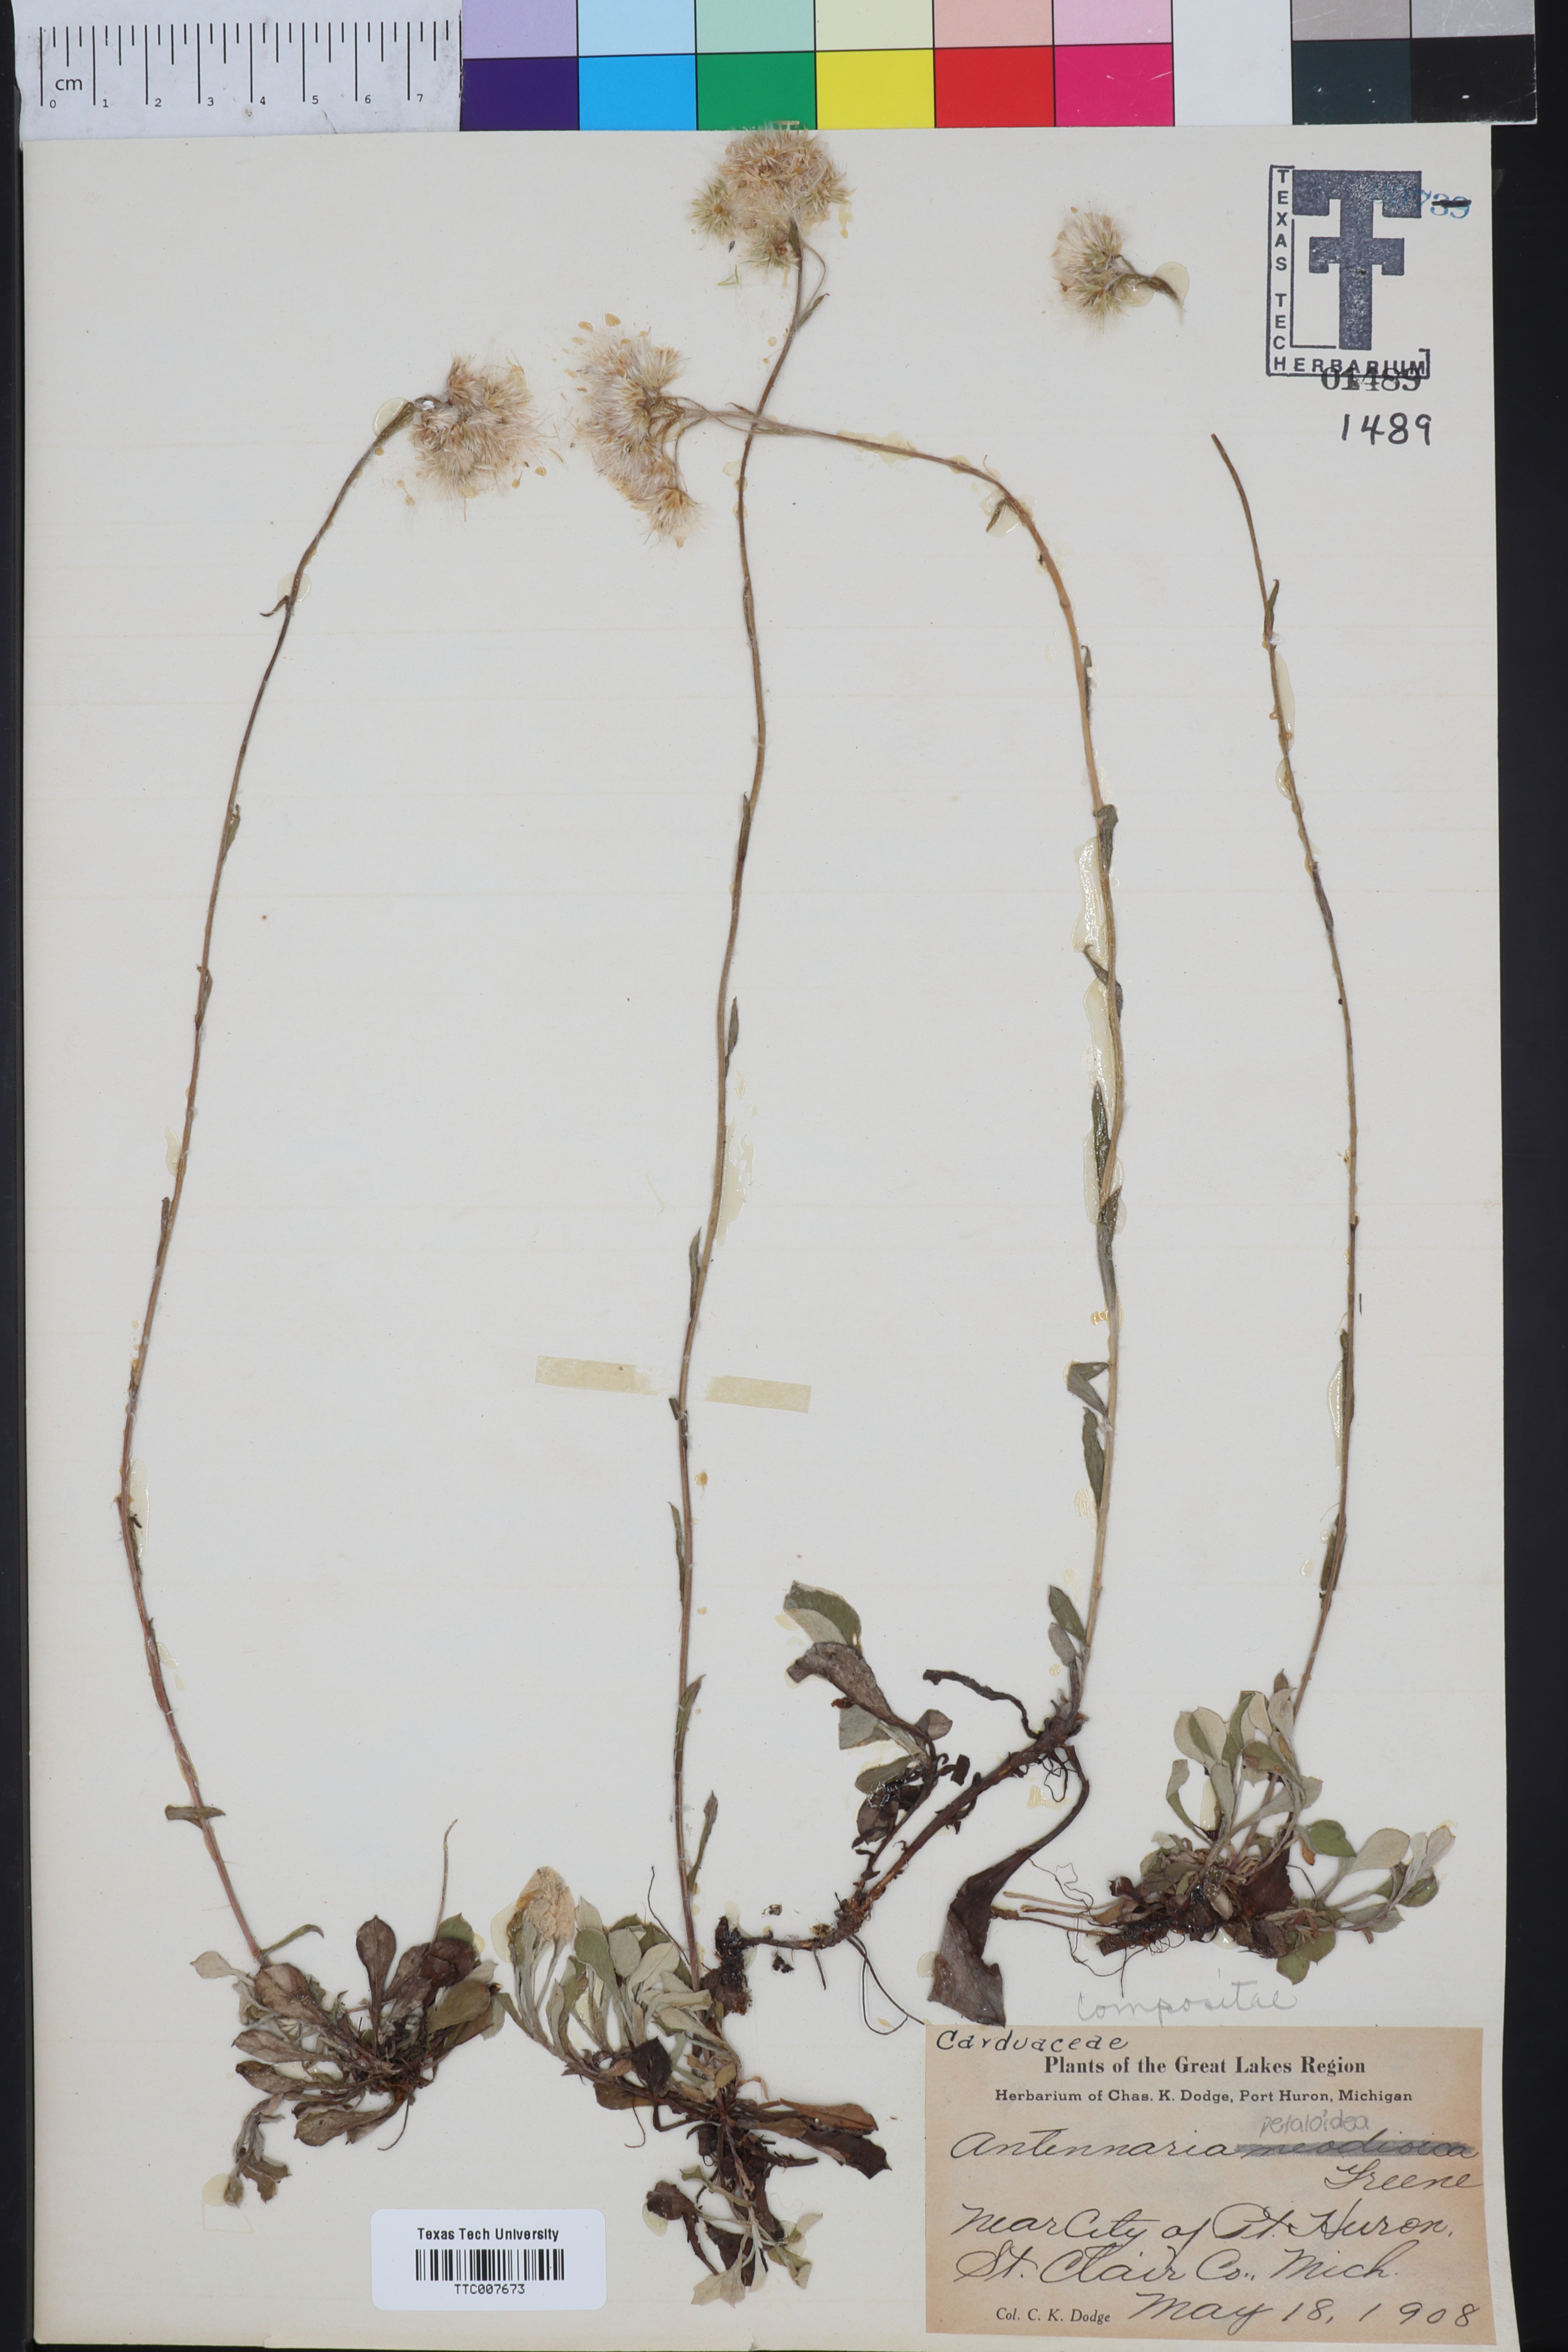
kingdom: Plantae
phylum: Tracheophyta
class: Magnoliopsida
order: Asterales
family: Asteraceae
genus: Antennaria
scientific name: Antennaria howellii
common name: Howell's pussytoes
